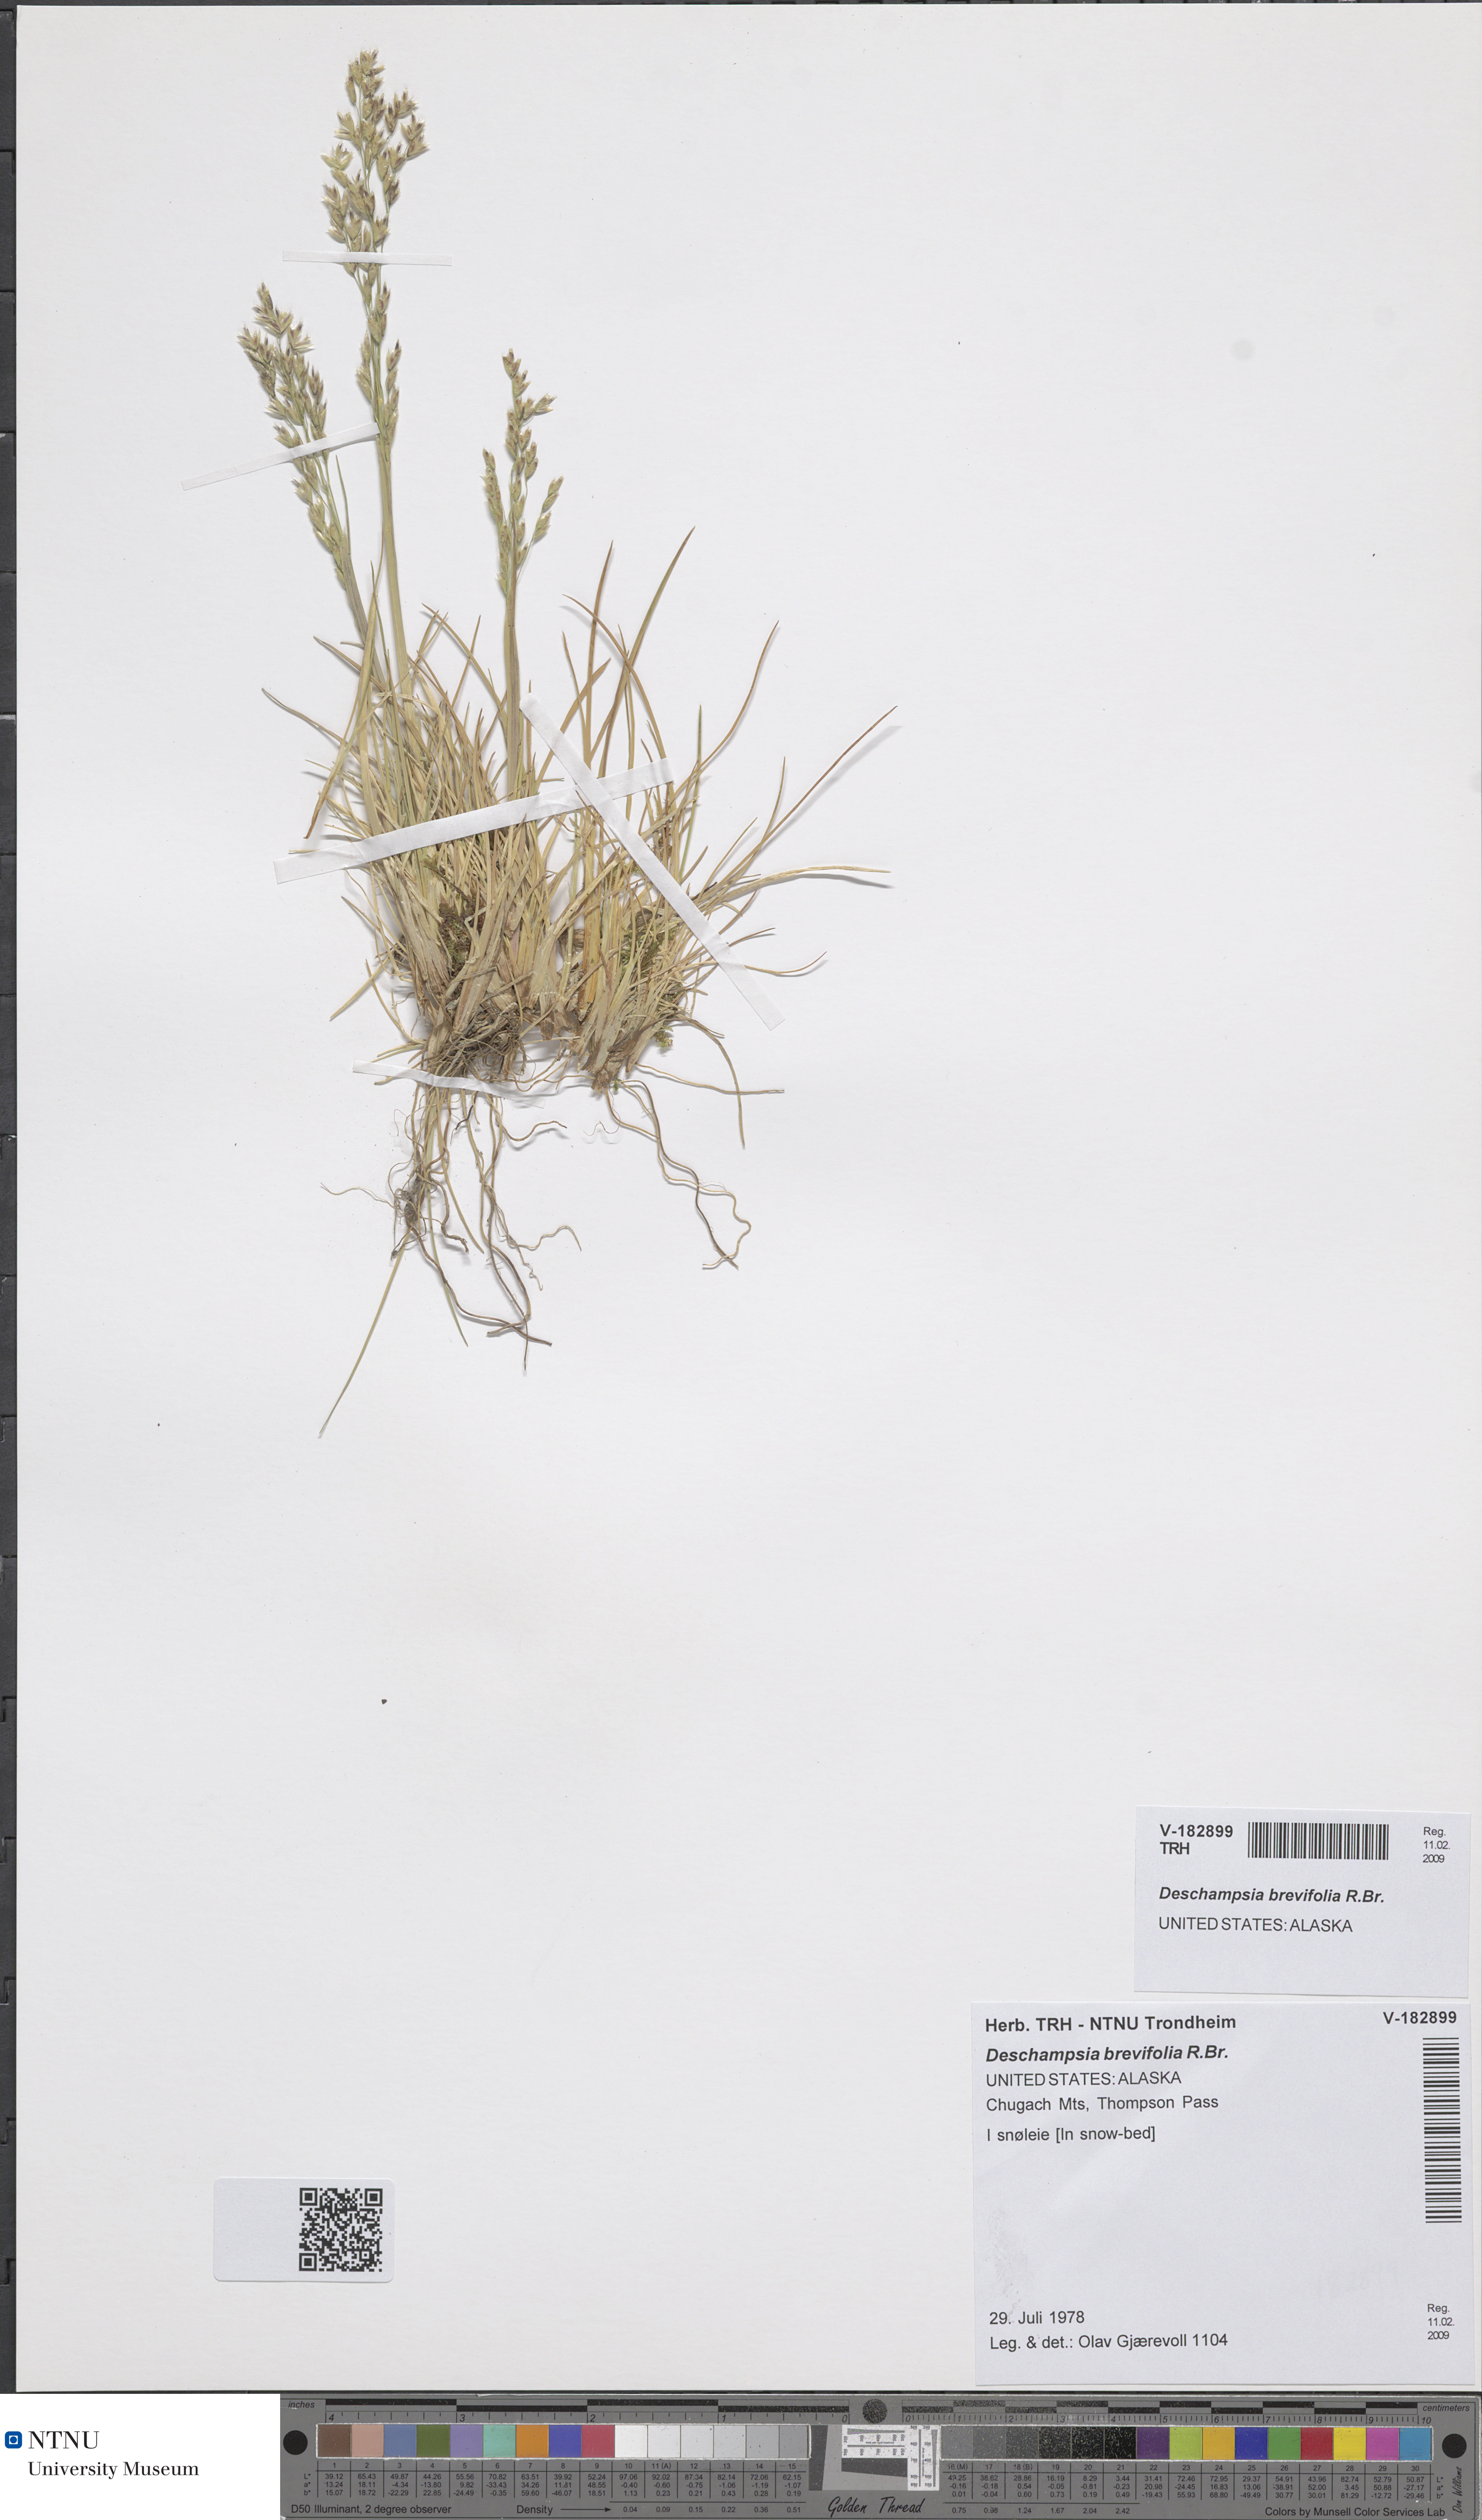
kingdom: Plantae
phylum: Tracheophyta
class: Liliopsida
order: Poales
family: Poaceae
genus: Deschampsia
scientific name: Deschampsia cespitosa
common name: Tufted hair-grass
